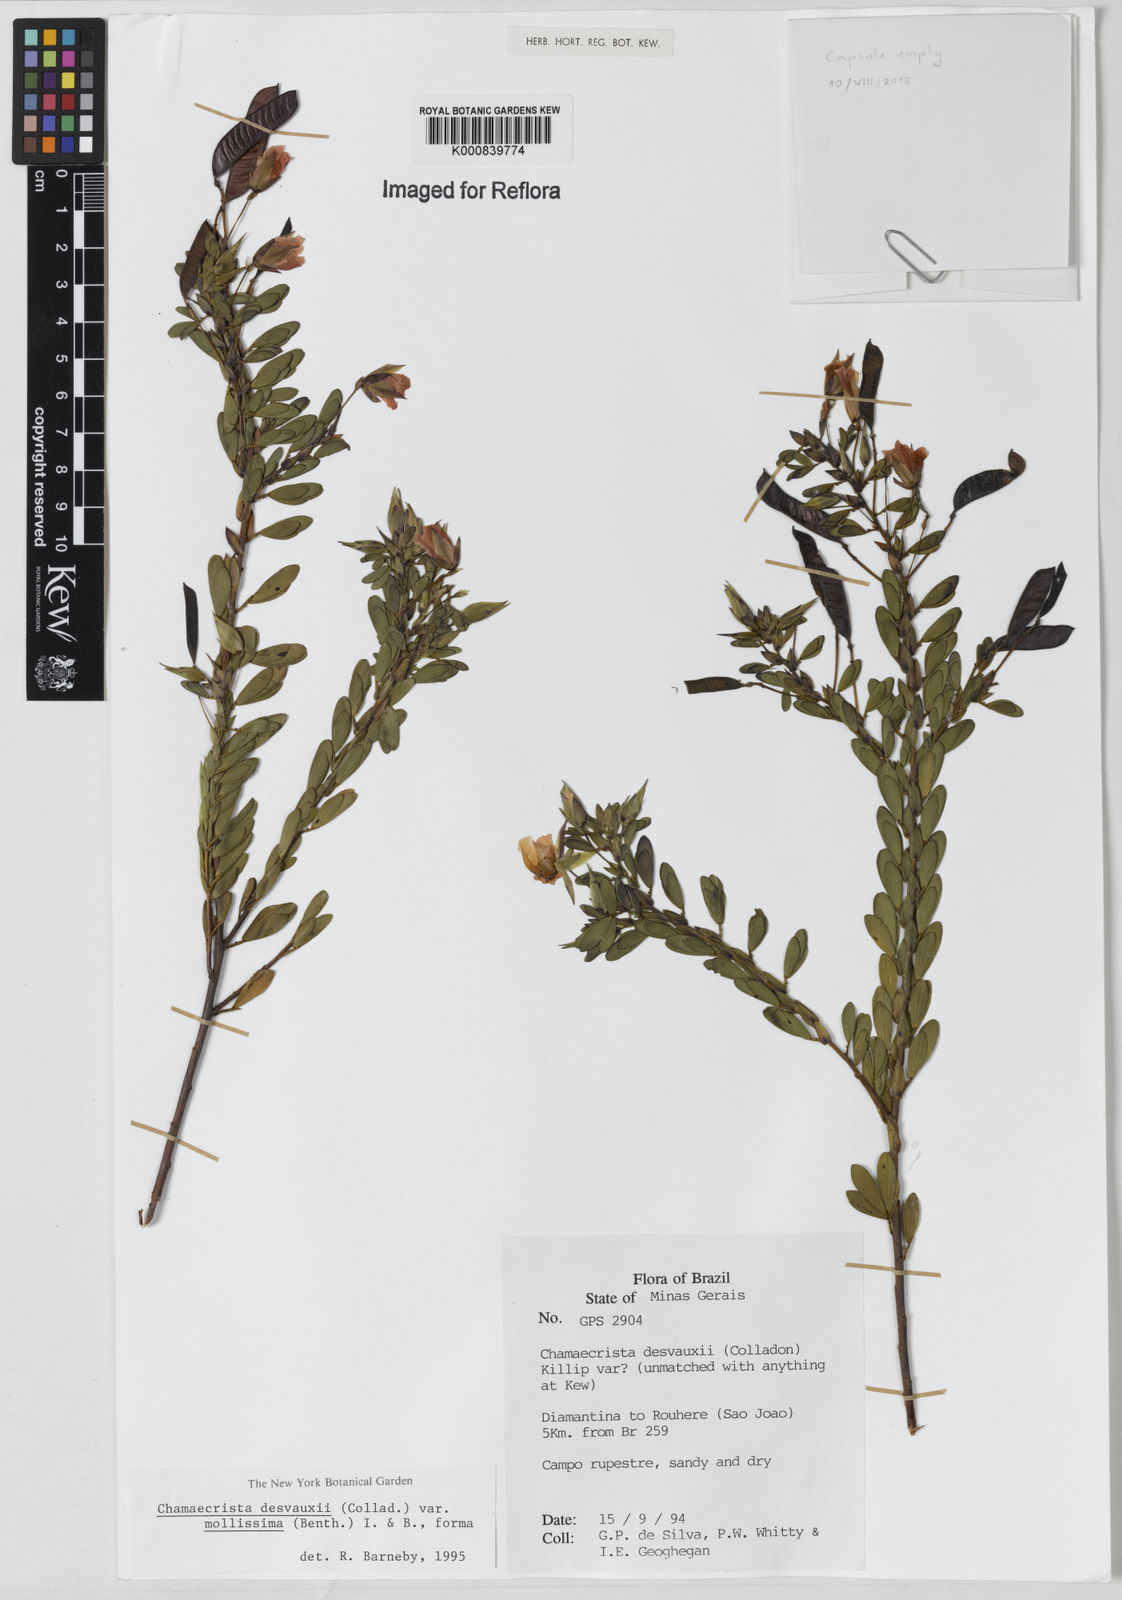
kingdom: Plantae
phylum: Tracheophyta
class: Magnoliopsida
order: Fabales
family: Fabaceae
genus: Chamaecrista
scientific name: Chamaecrista desvauxii
